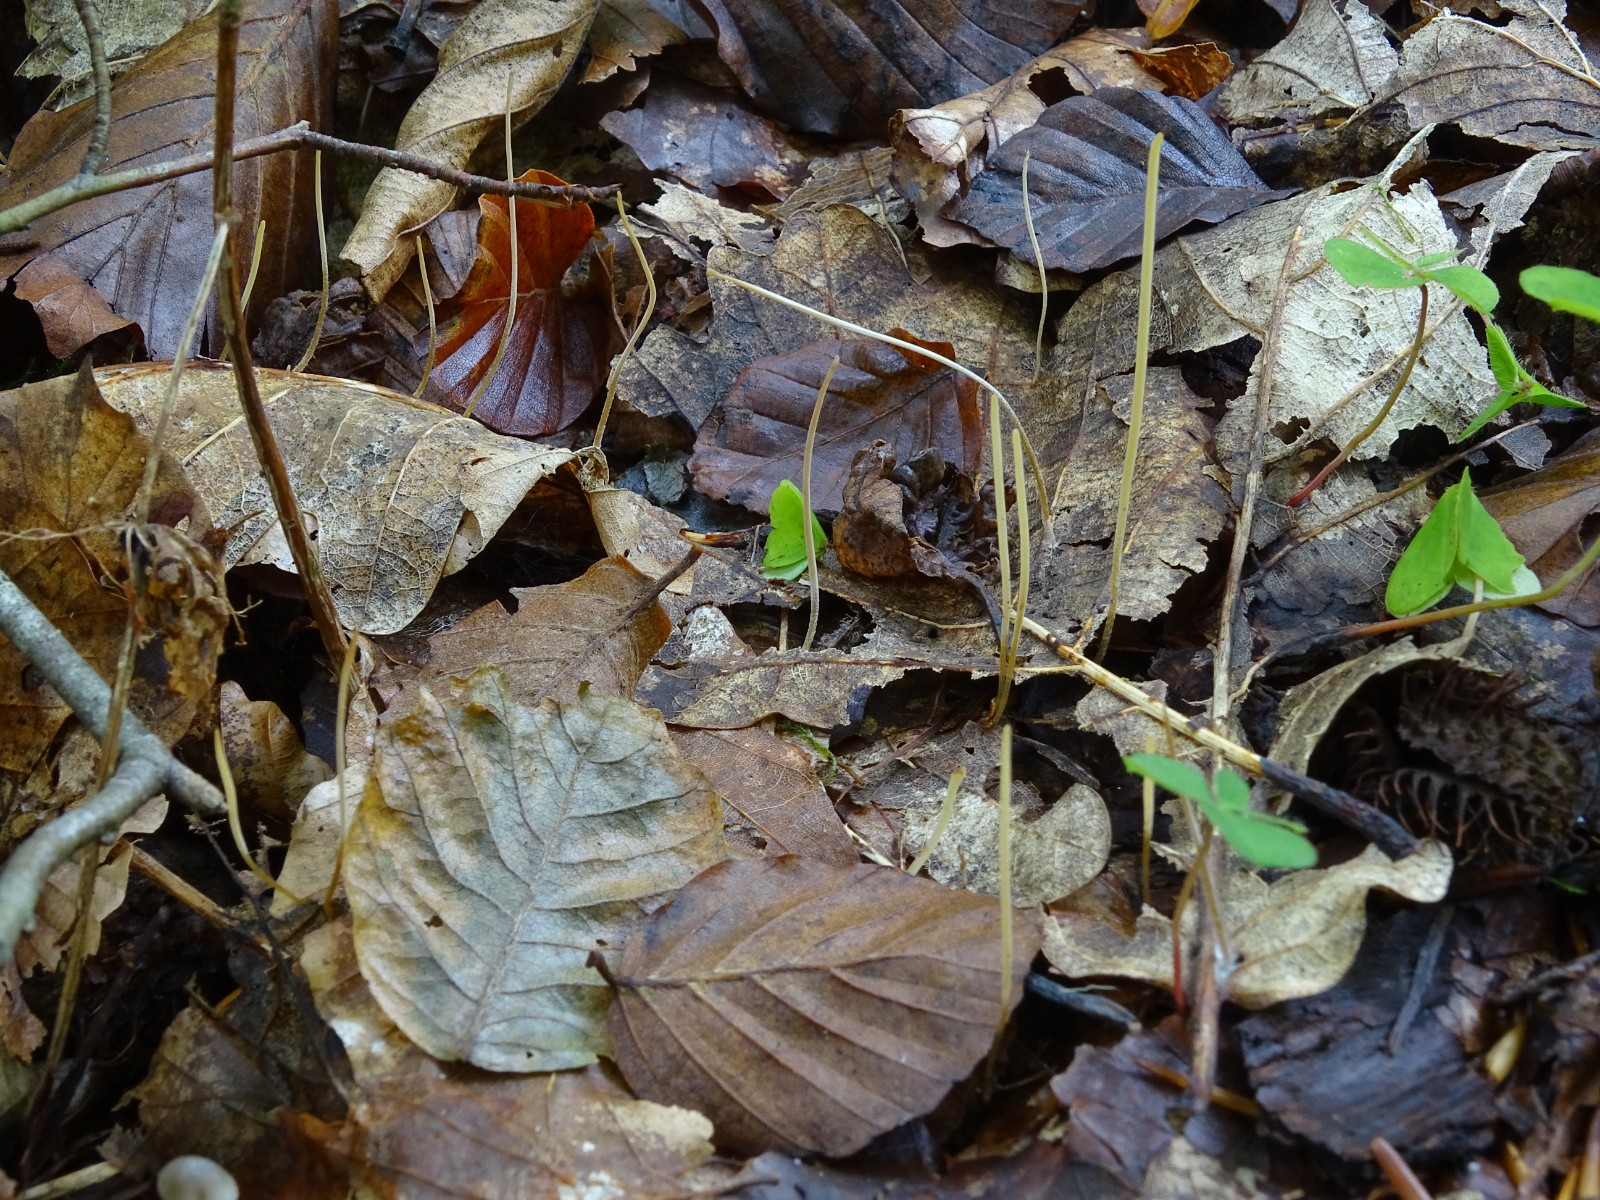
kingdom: Fungi
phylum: Basidiomycota
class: Agaricomycetes
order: Agaricales
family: Typhulaceae
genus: Typhula
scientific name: Typhula juncea
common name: trådagtig rørkølle
